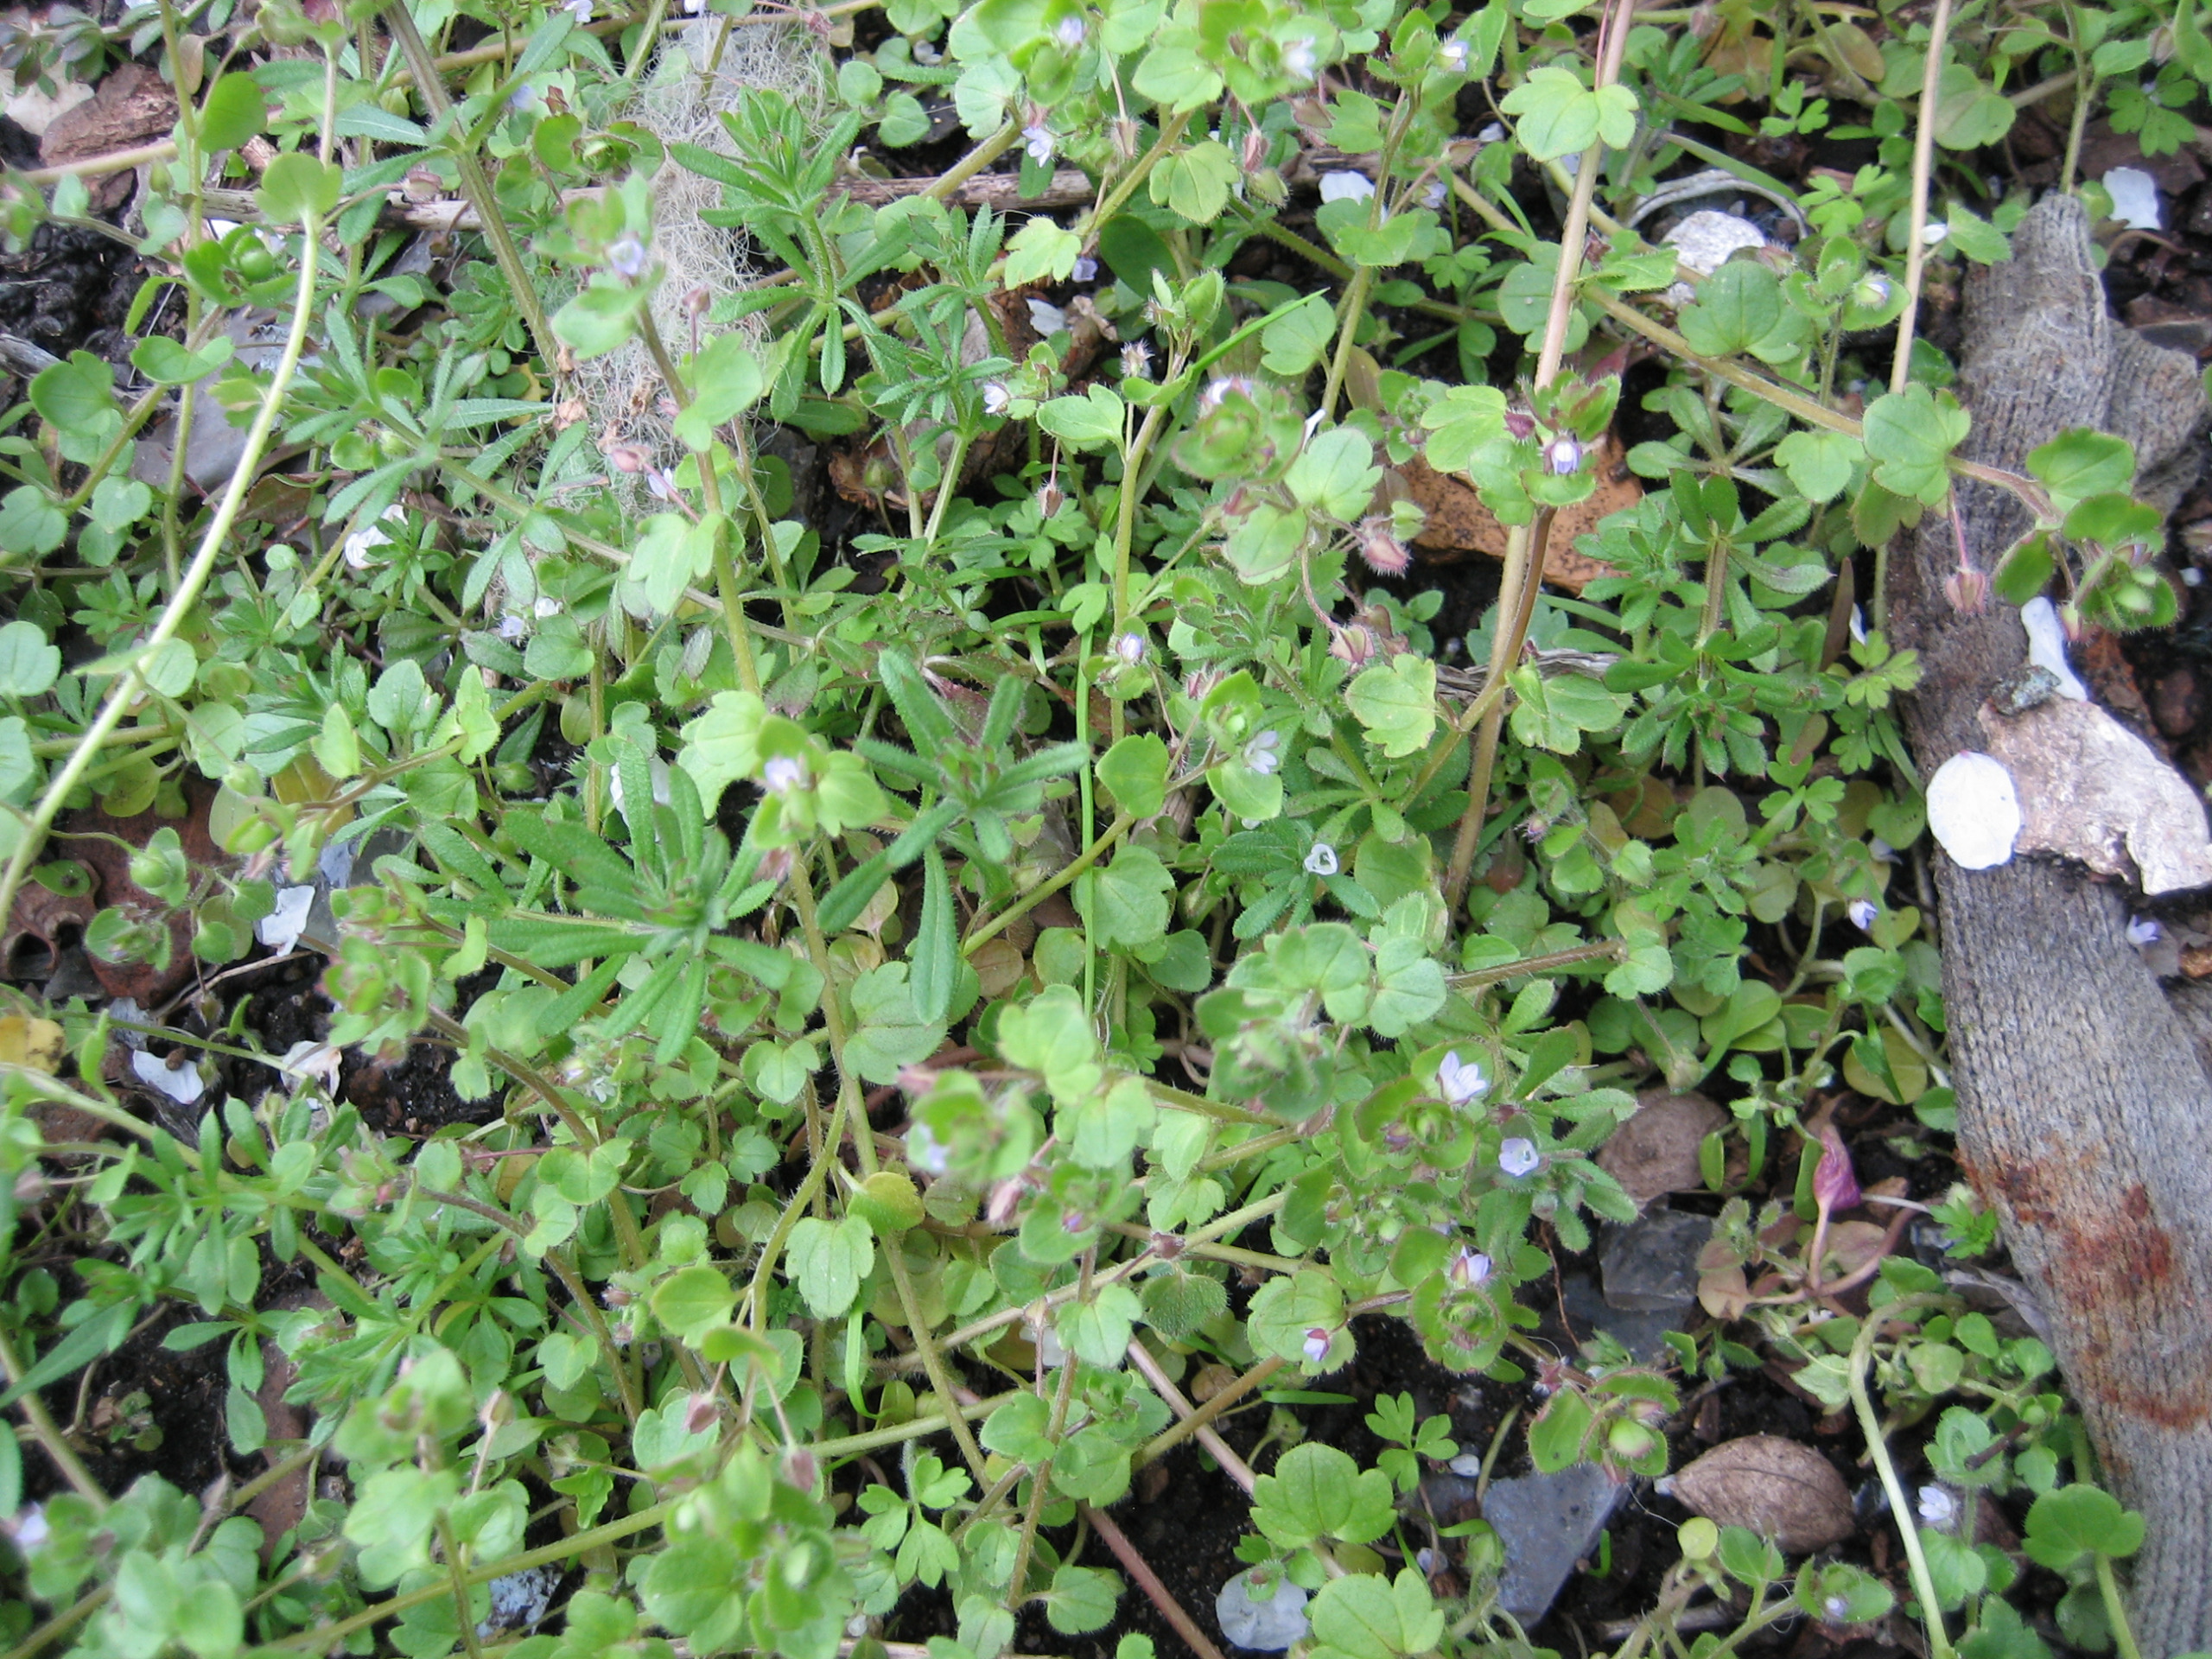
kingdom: Plantae
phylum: Tracheophyta
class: Magnoliopsida
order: Gentianales
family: Rubiaceae
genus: Galium
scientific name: Galium aparine
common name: Burre-snerre
